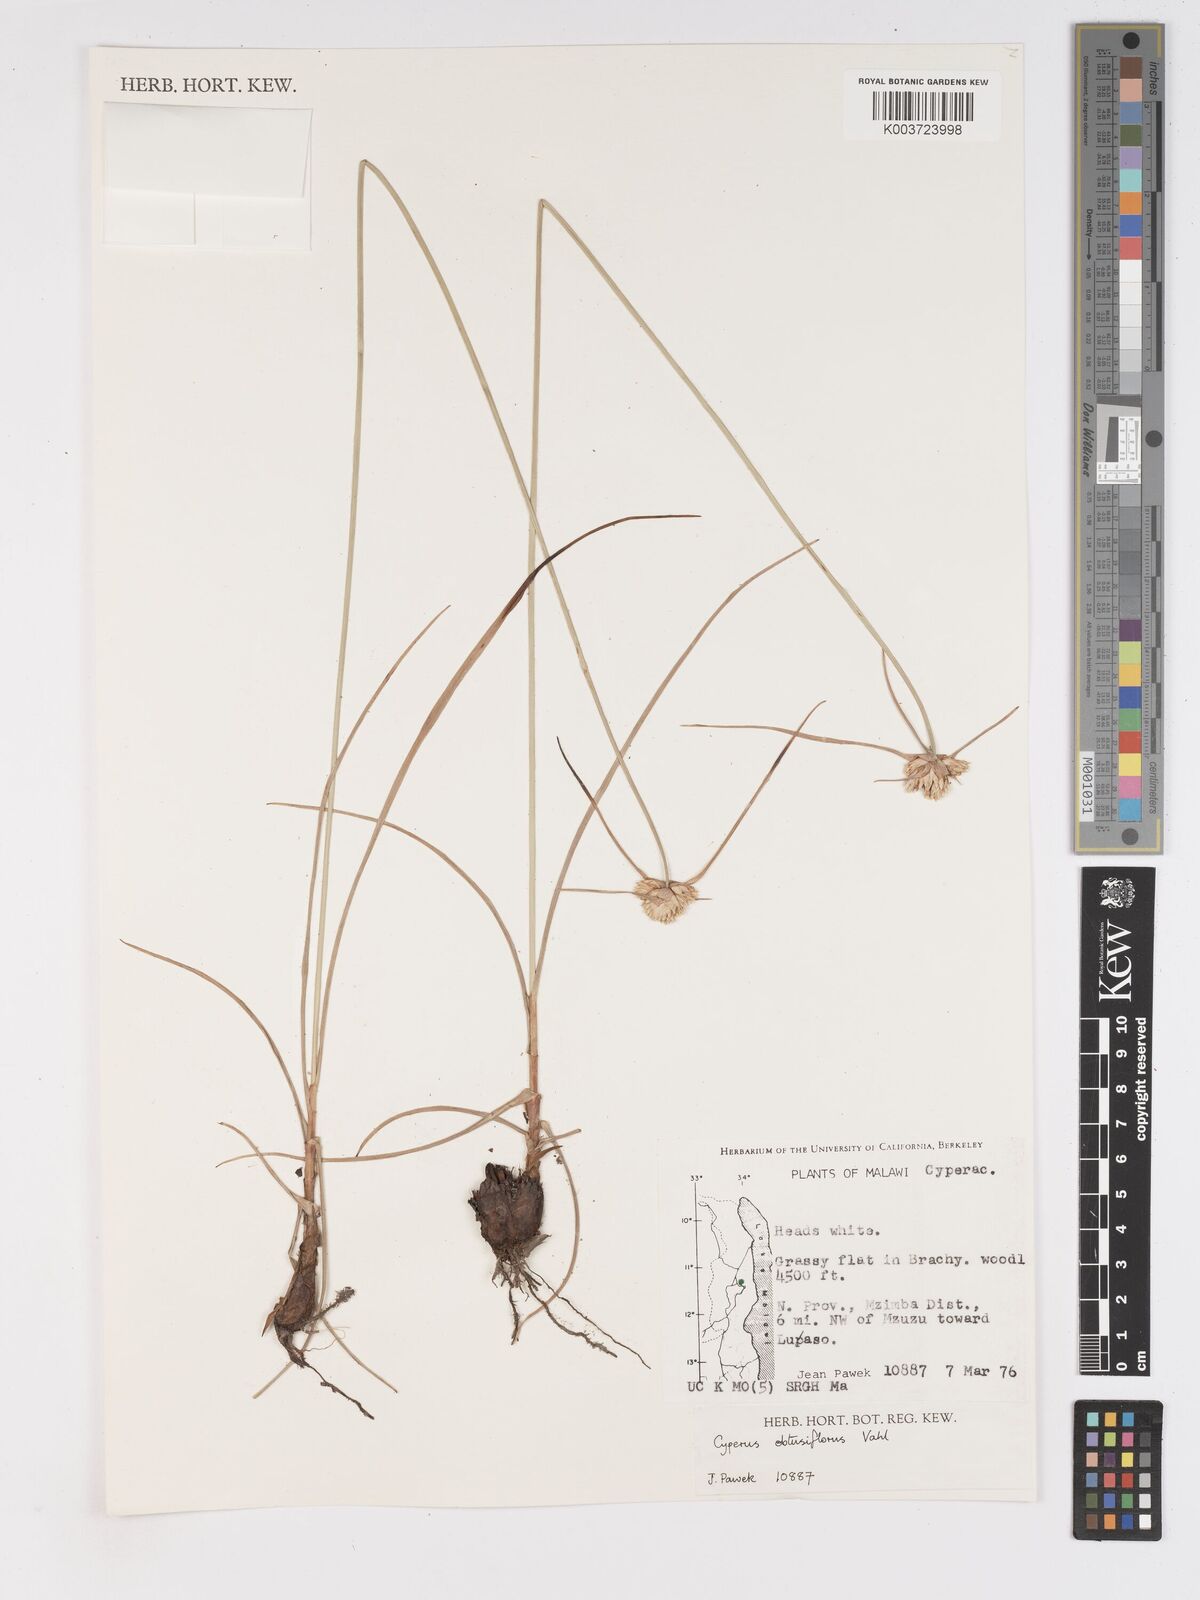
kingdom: Plantae
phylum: Tracheophyta
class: Liliopsida
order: Poales
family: Cyperaceae
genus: Cyperus
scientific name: Cyperus niveus
